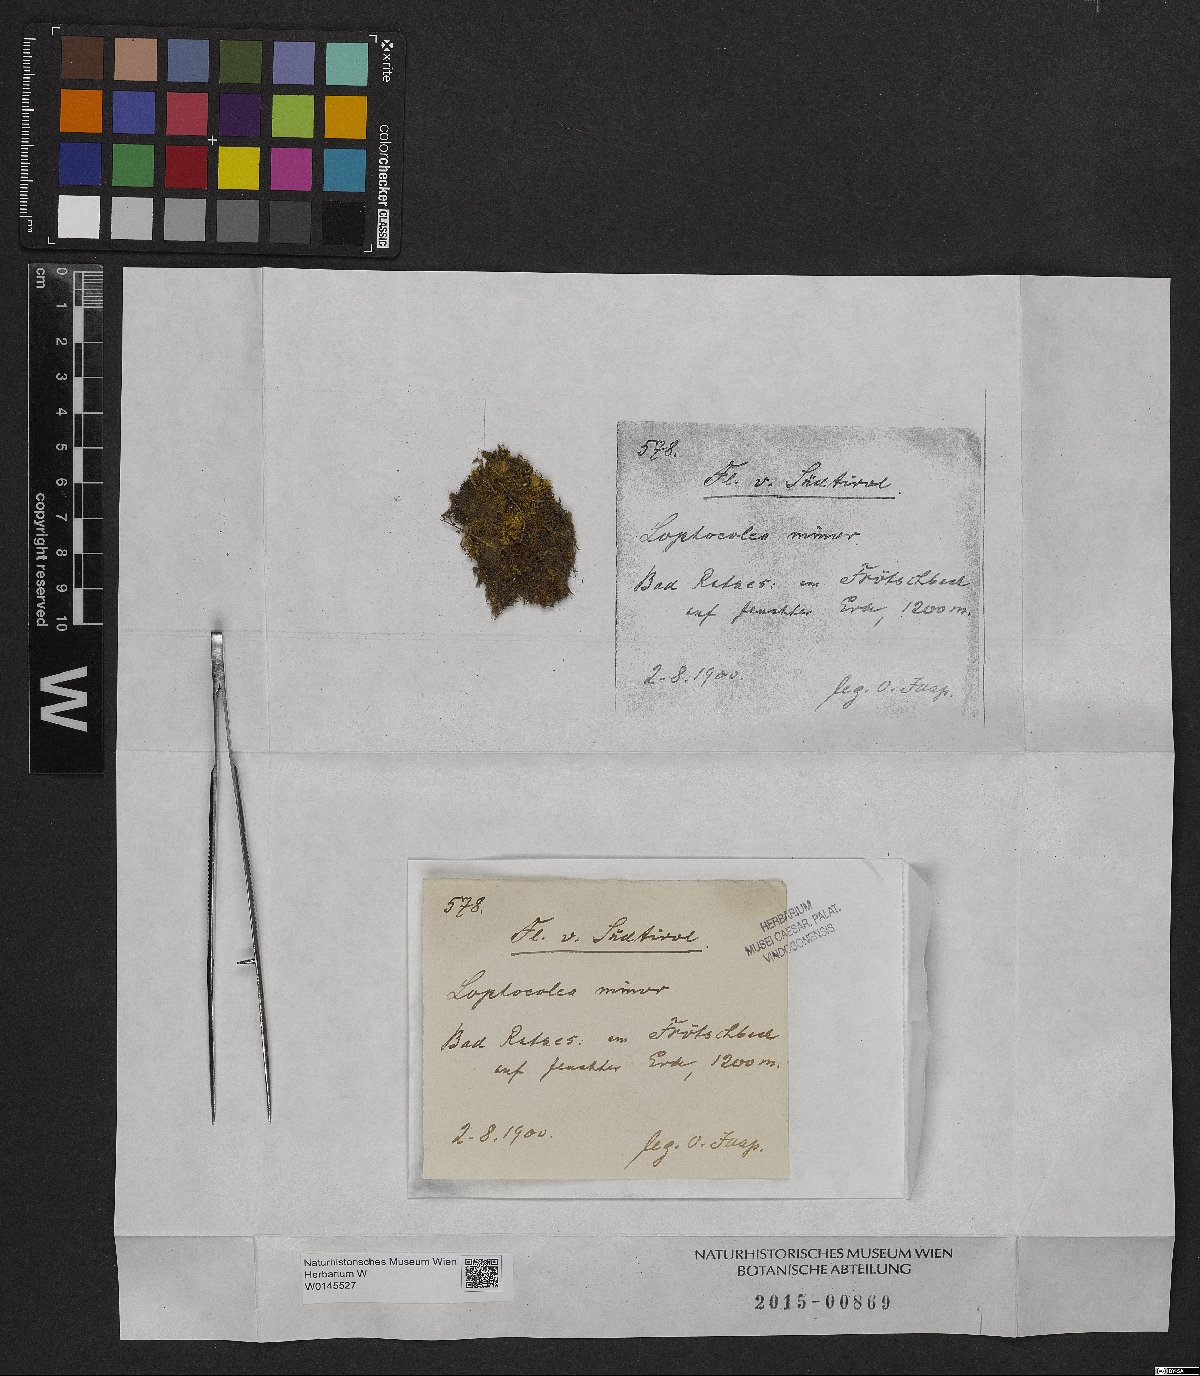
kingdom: Plantae
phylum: Marchantiophyta
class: Jungermanniopsida
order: Jungermanniales
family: Lophocoleaceae
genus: Lophocolea
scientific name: Lophocolea minor
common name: Lesser crestwort
